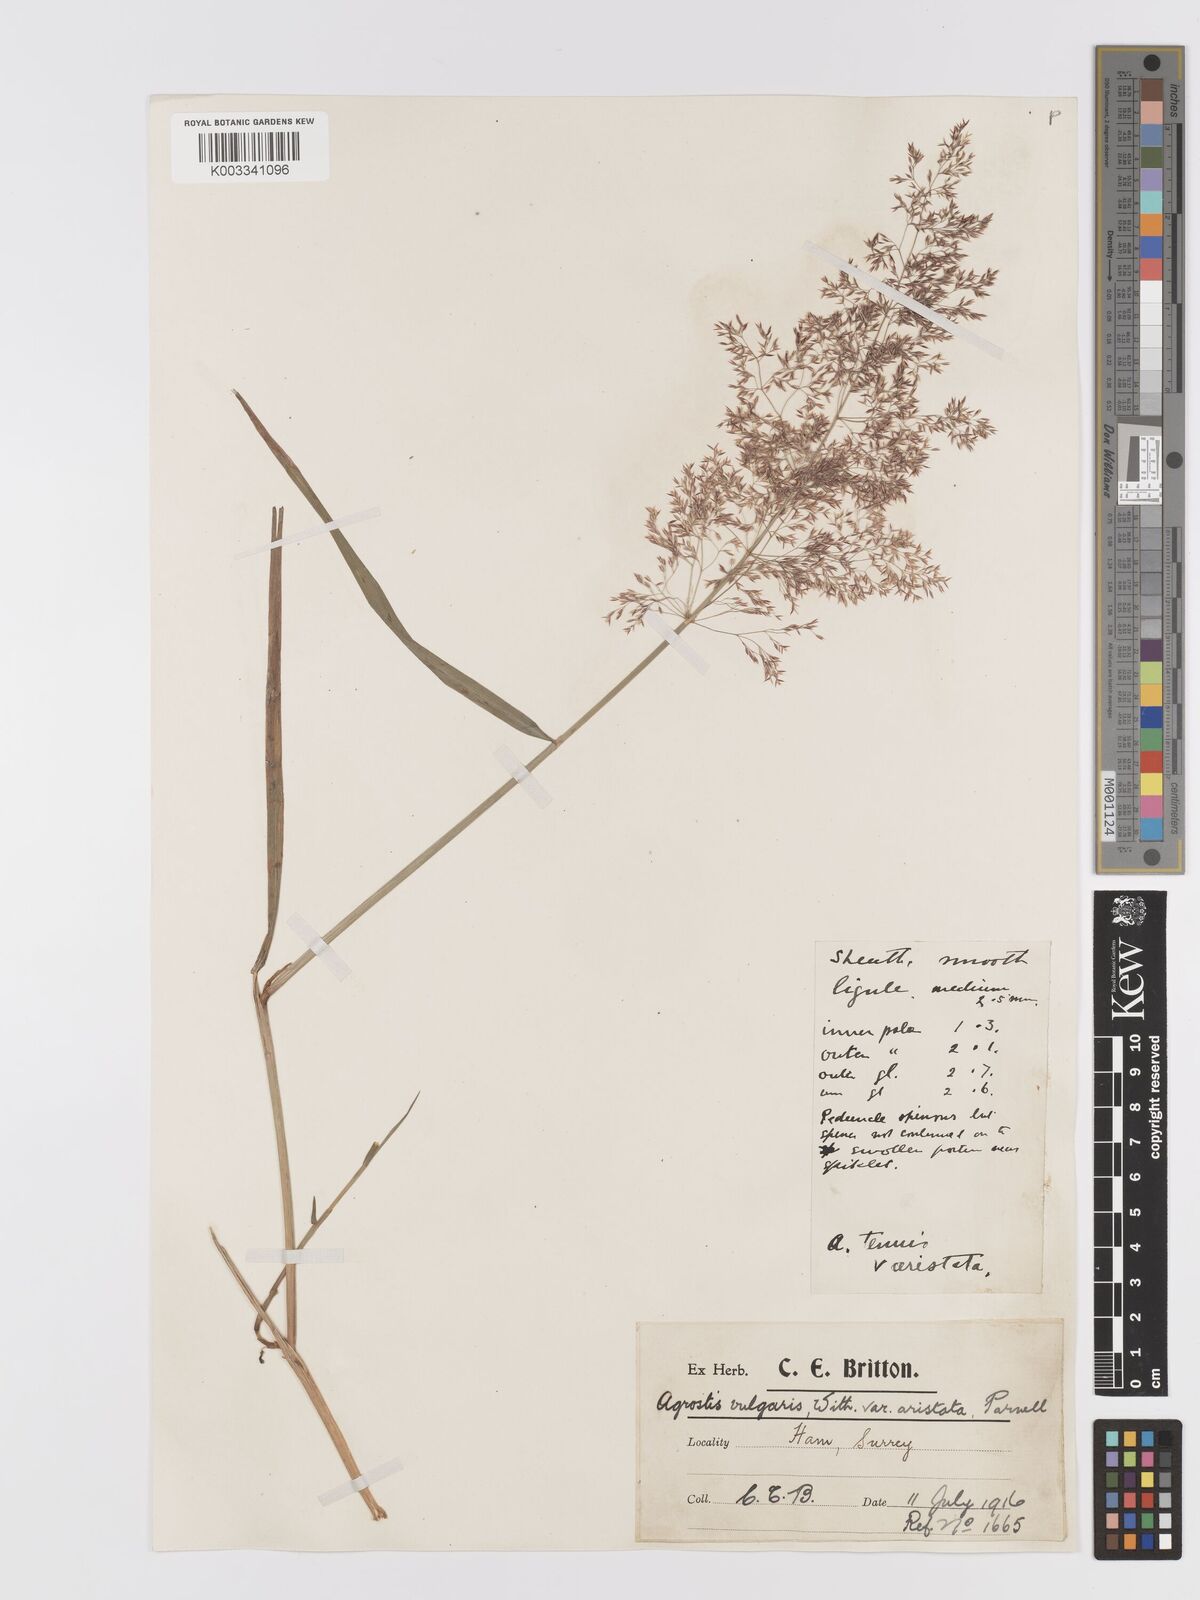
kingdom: Plantae
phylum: Tracheophyta
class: Liliopsida
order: Poales
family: Poaceae
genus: Agrostis
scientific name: Agrostis gigantea
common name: Black bent
